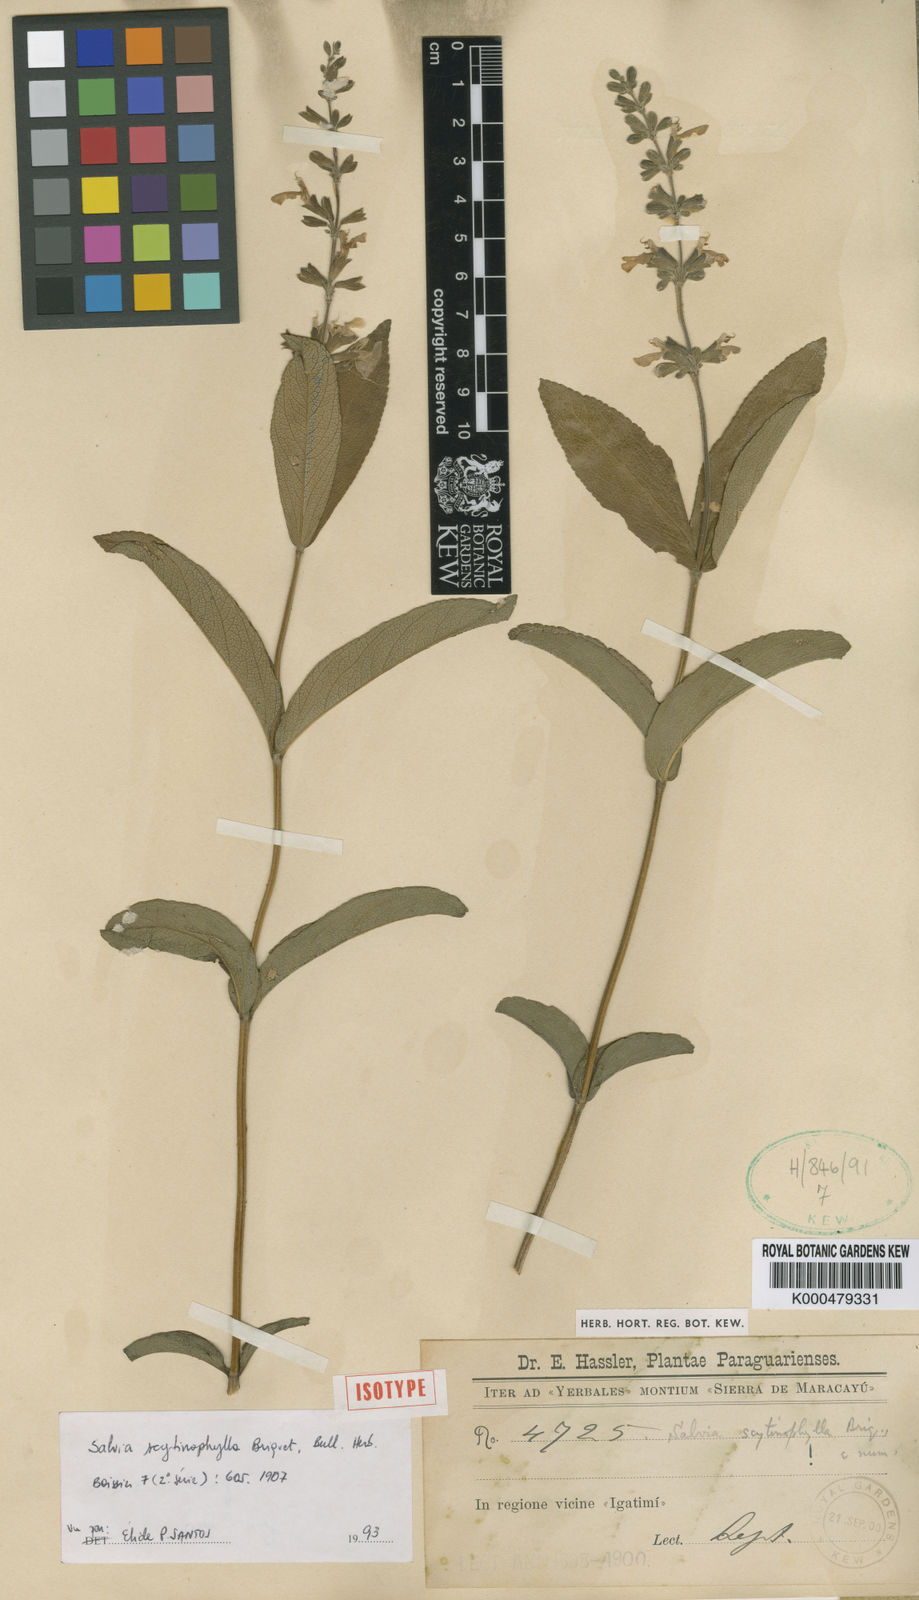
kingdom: Plantae
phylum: Tracheophyta
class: Magnoliopsida
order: Lamiales
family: Lamiaceae
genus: Salvia
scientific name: Salvia nervosa
